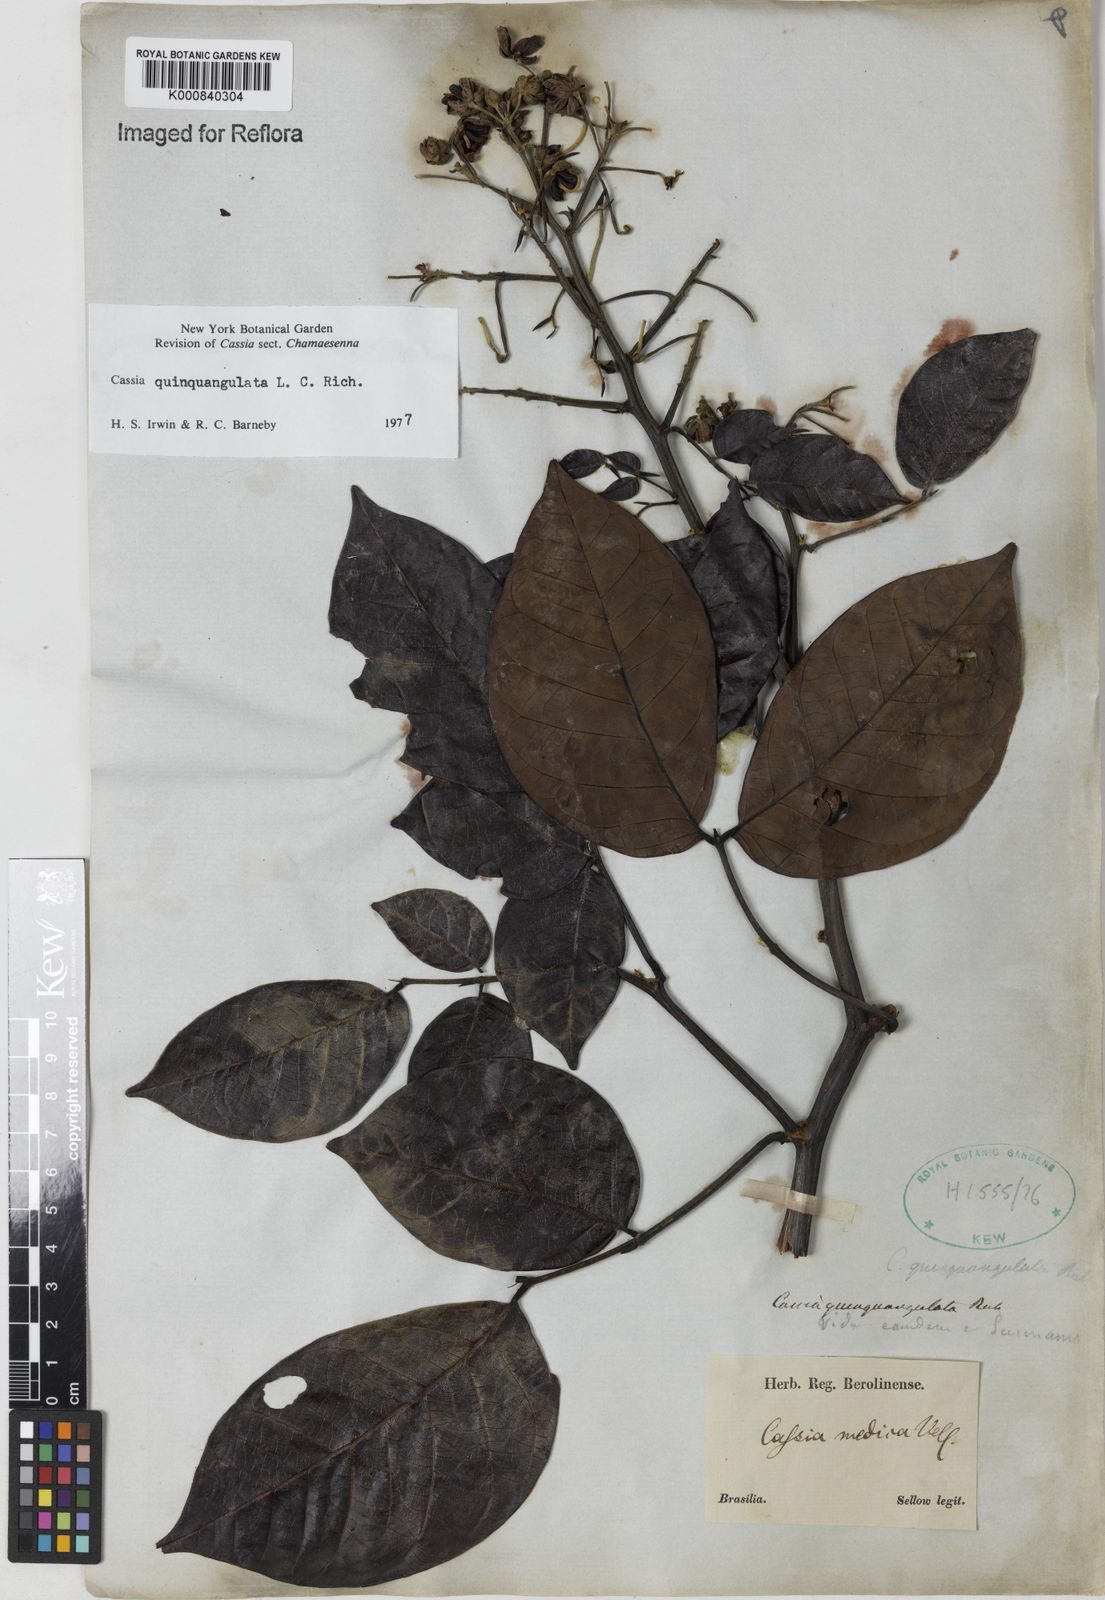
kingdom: Plantae
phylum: Tracheophyta
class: Magnoliopsida
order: Fabales
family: Fabaceae
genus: Senna
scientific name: Senna quinquangulata
